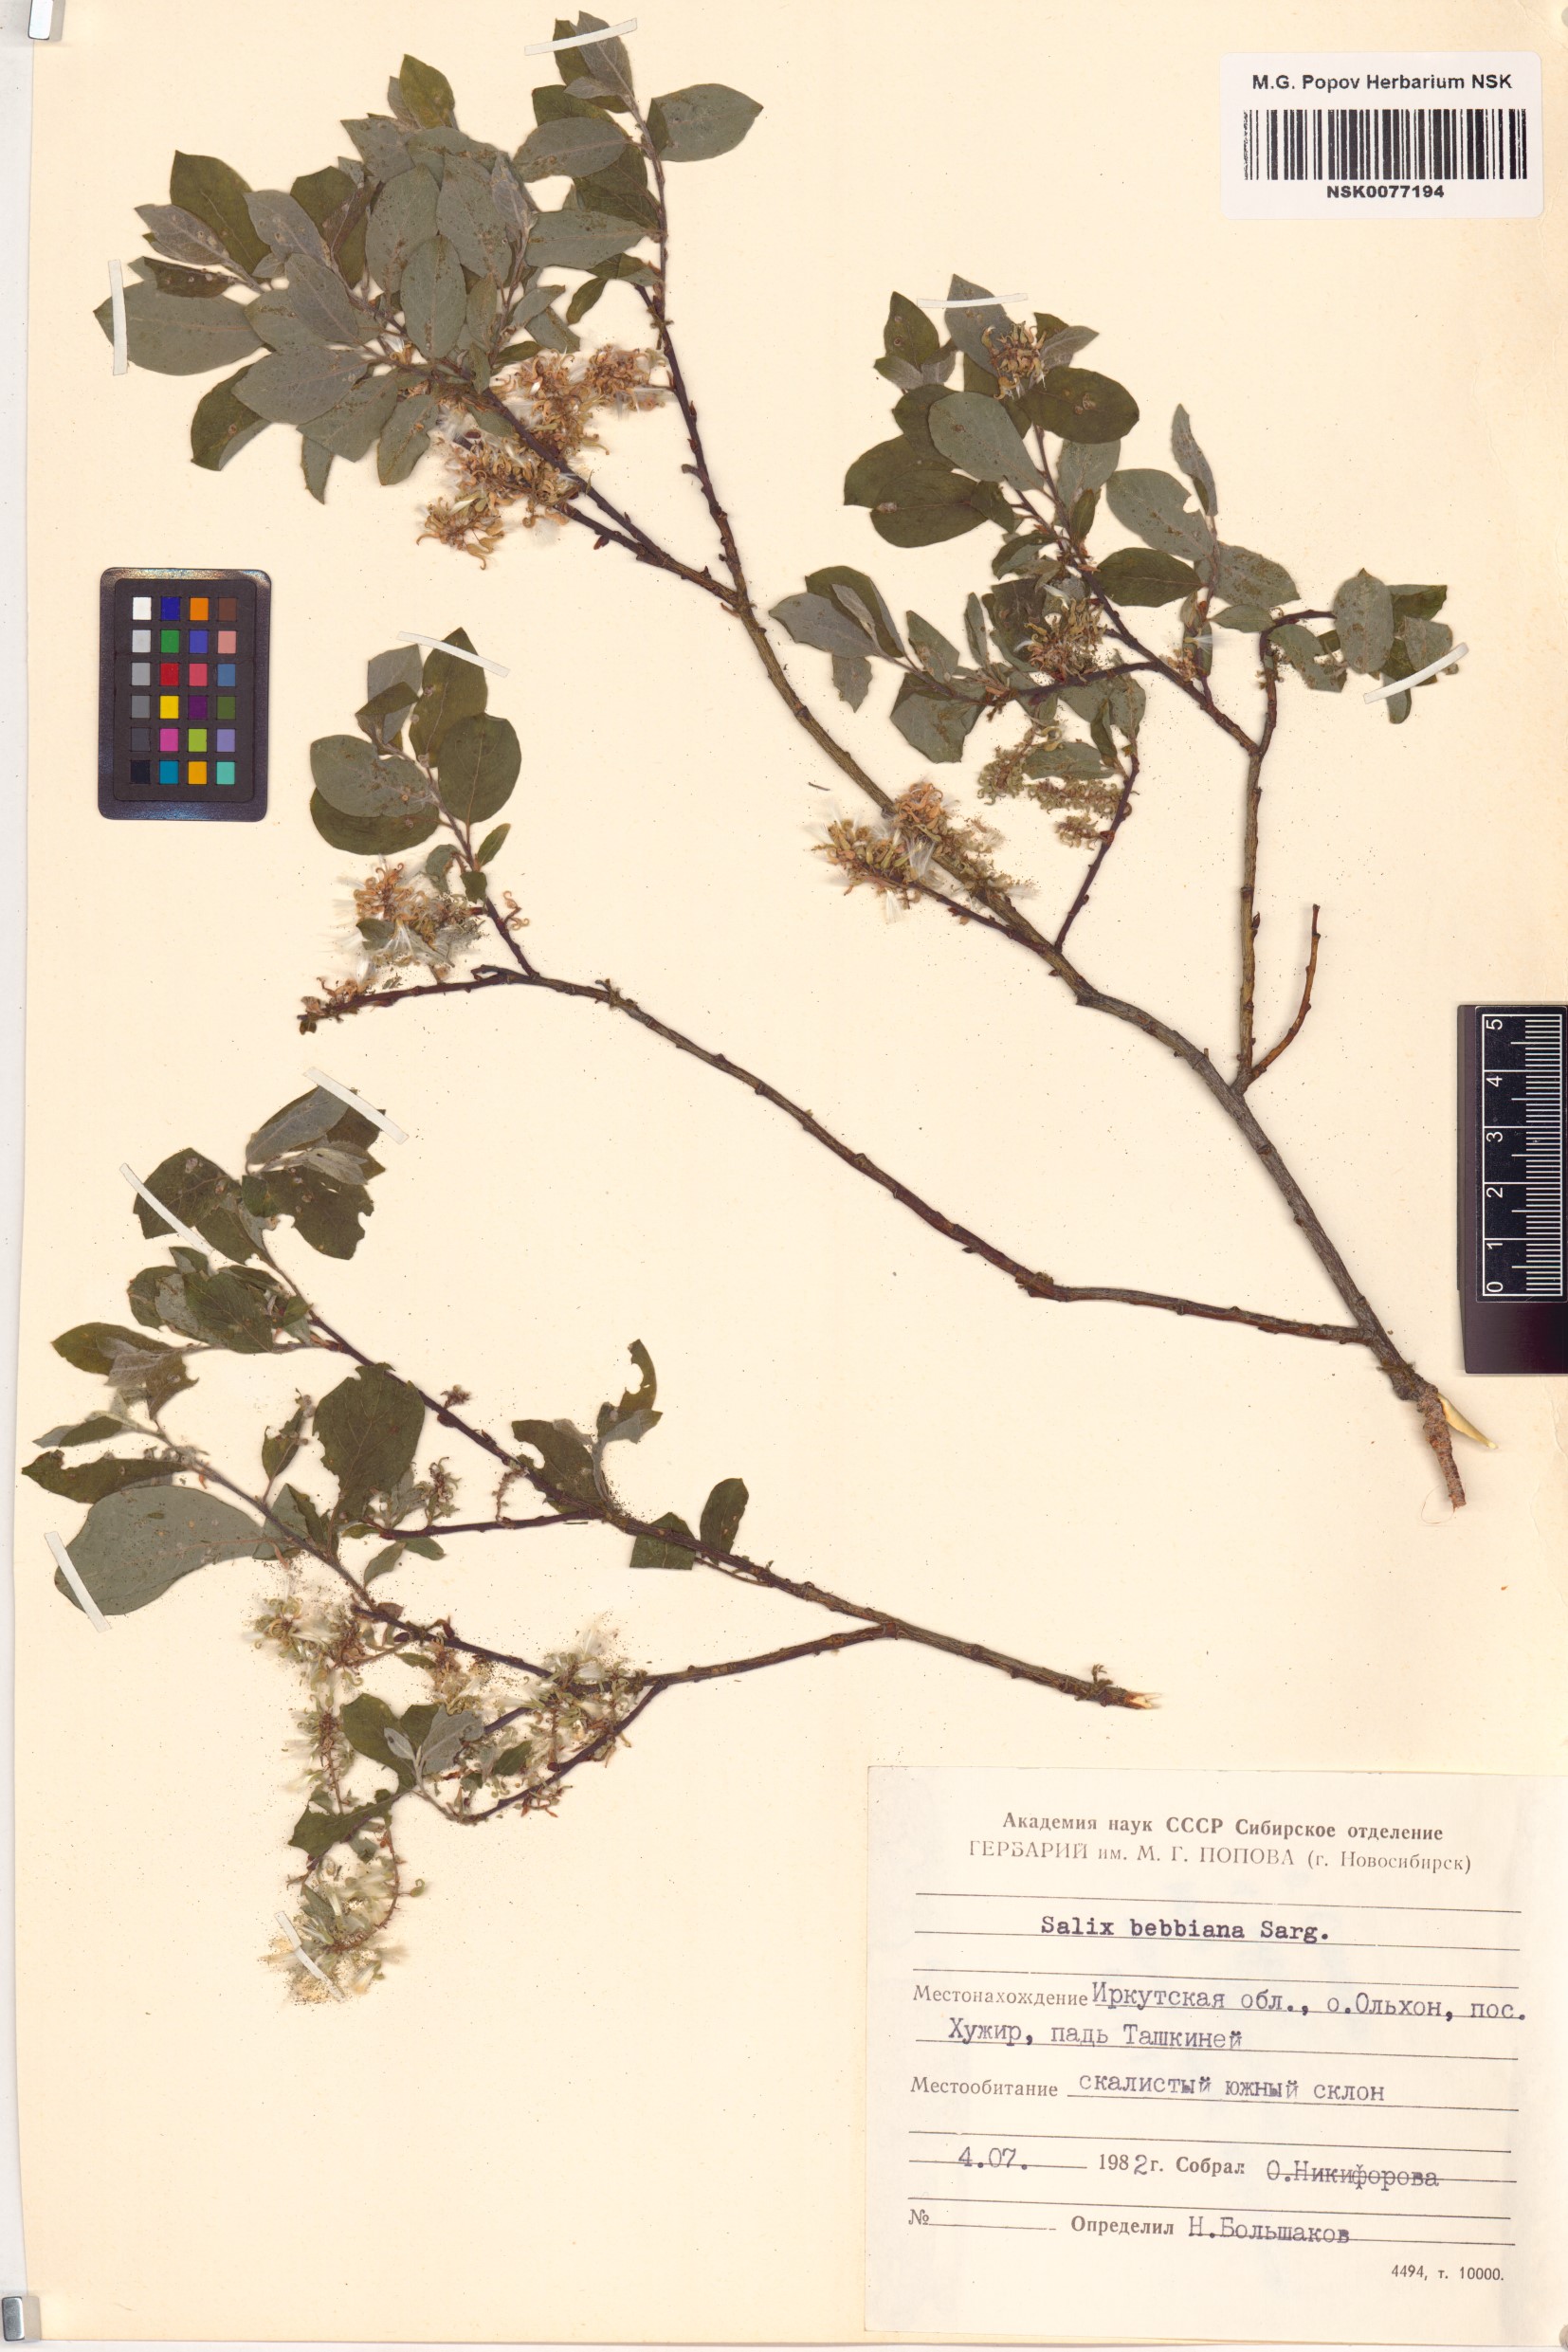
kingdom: Plantae
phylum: Tracheophyta
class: Magnoliopsida
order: Malpighiales
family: Salicaceae
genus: Salix
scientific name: Salix bebbiana
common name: Bebb's willow
